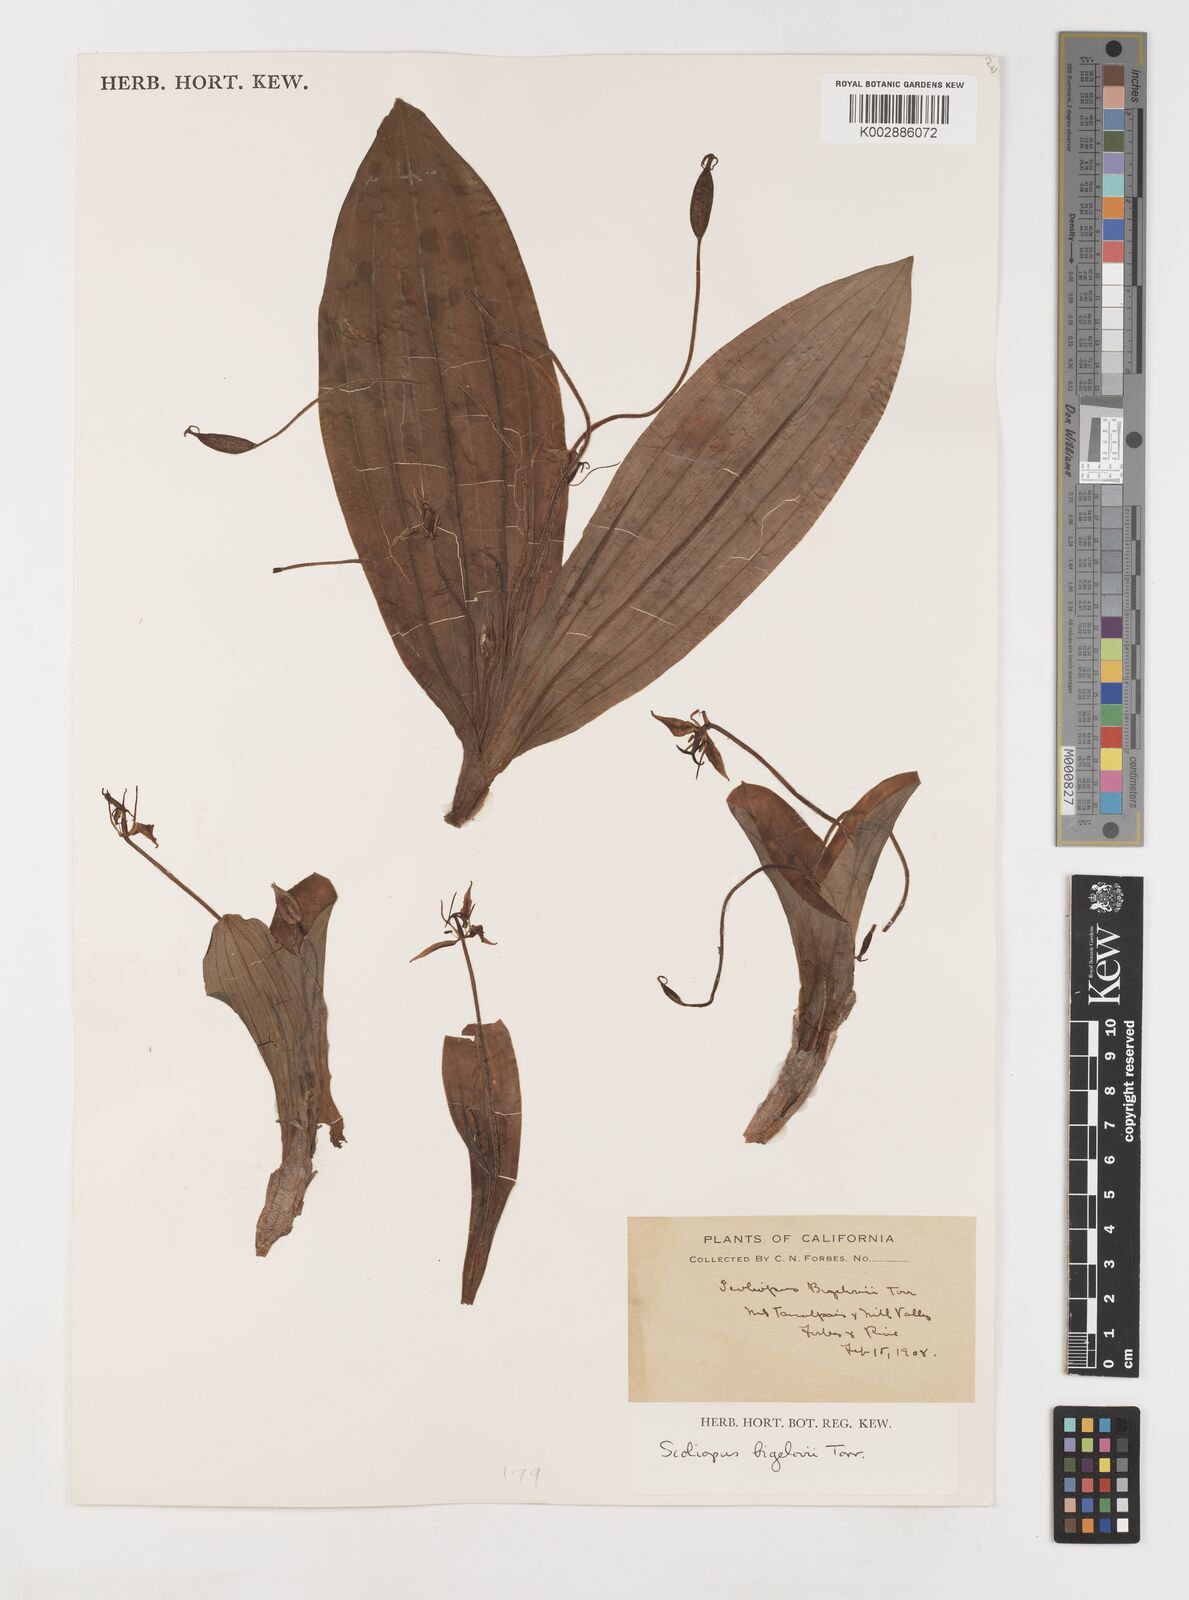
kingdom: Plantae
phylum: Tracheophyta
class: Liliopsida
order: Liliales
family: Liliaceae
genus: Scoliopus
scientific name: Scoliopus bigelovii
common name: Foetid adder's-tongue
